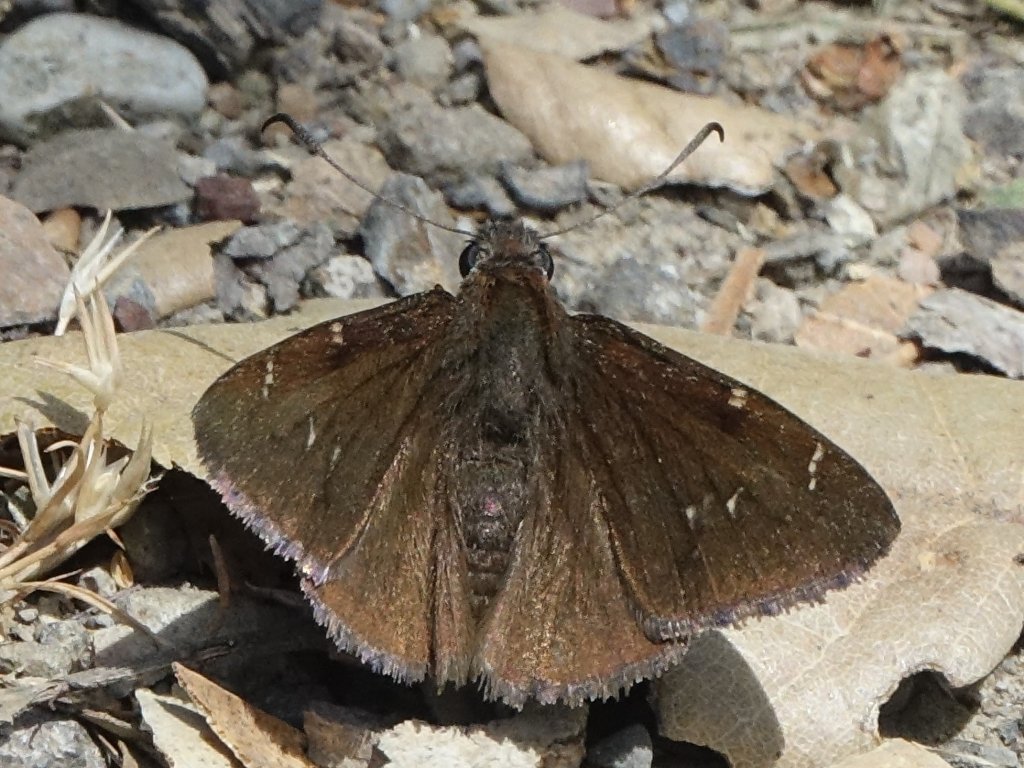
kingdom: Animalia
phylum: Arthropoda
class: Insecta
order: Lepidoptera
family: Hesperiidae
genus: Autochton
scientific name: Autochton
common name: Northern Cloudywing
